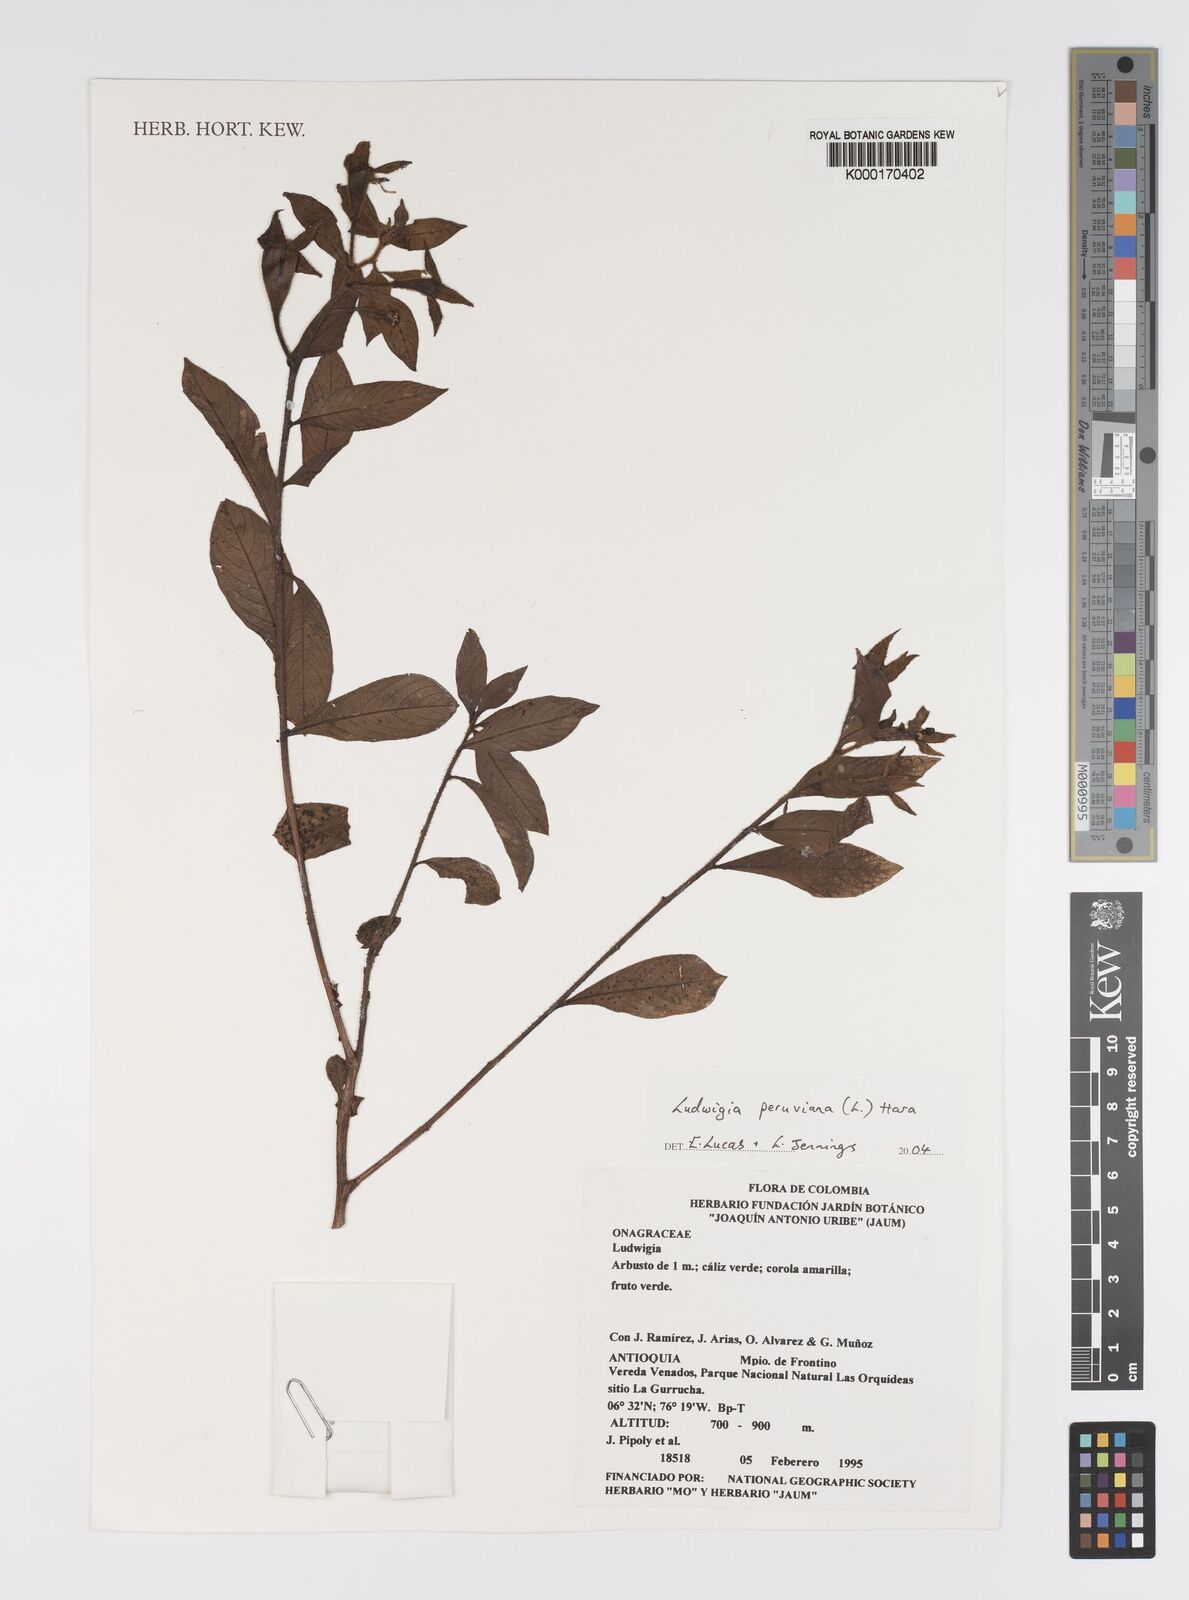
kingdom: Plantae
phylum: Tracheophyta
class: Magnoliopsida
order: Myrtales
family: Onagraceae
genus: Ludwigia
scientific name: Ludwigia peruviana
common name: Peruvian primrose-willow
